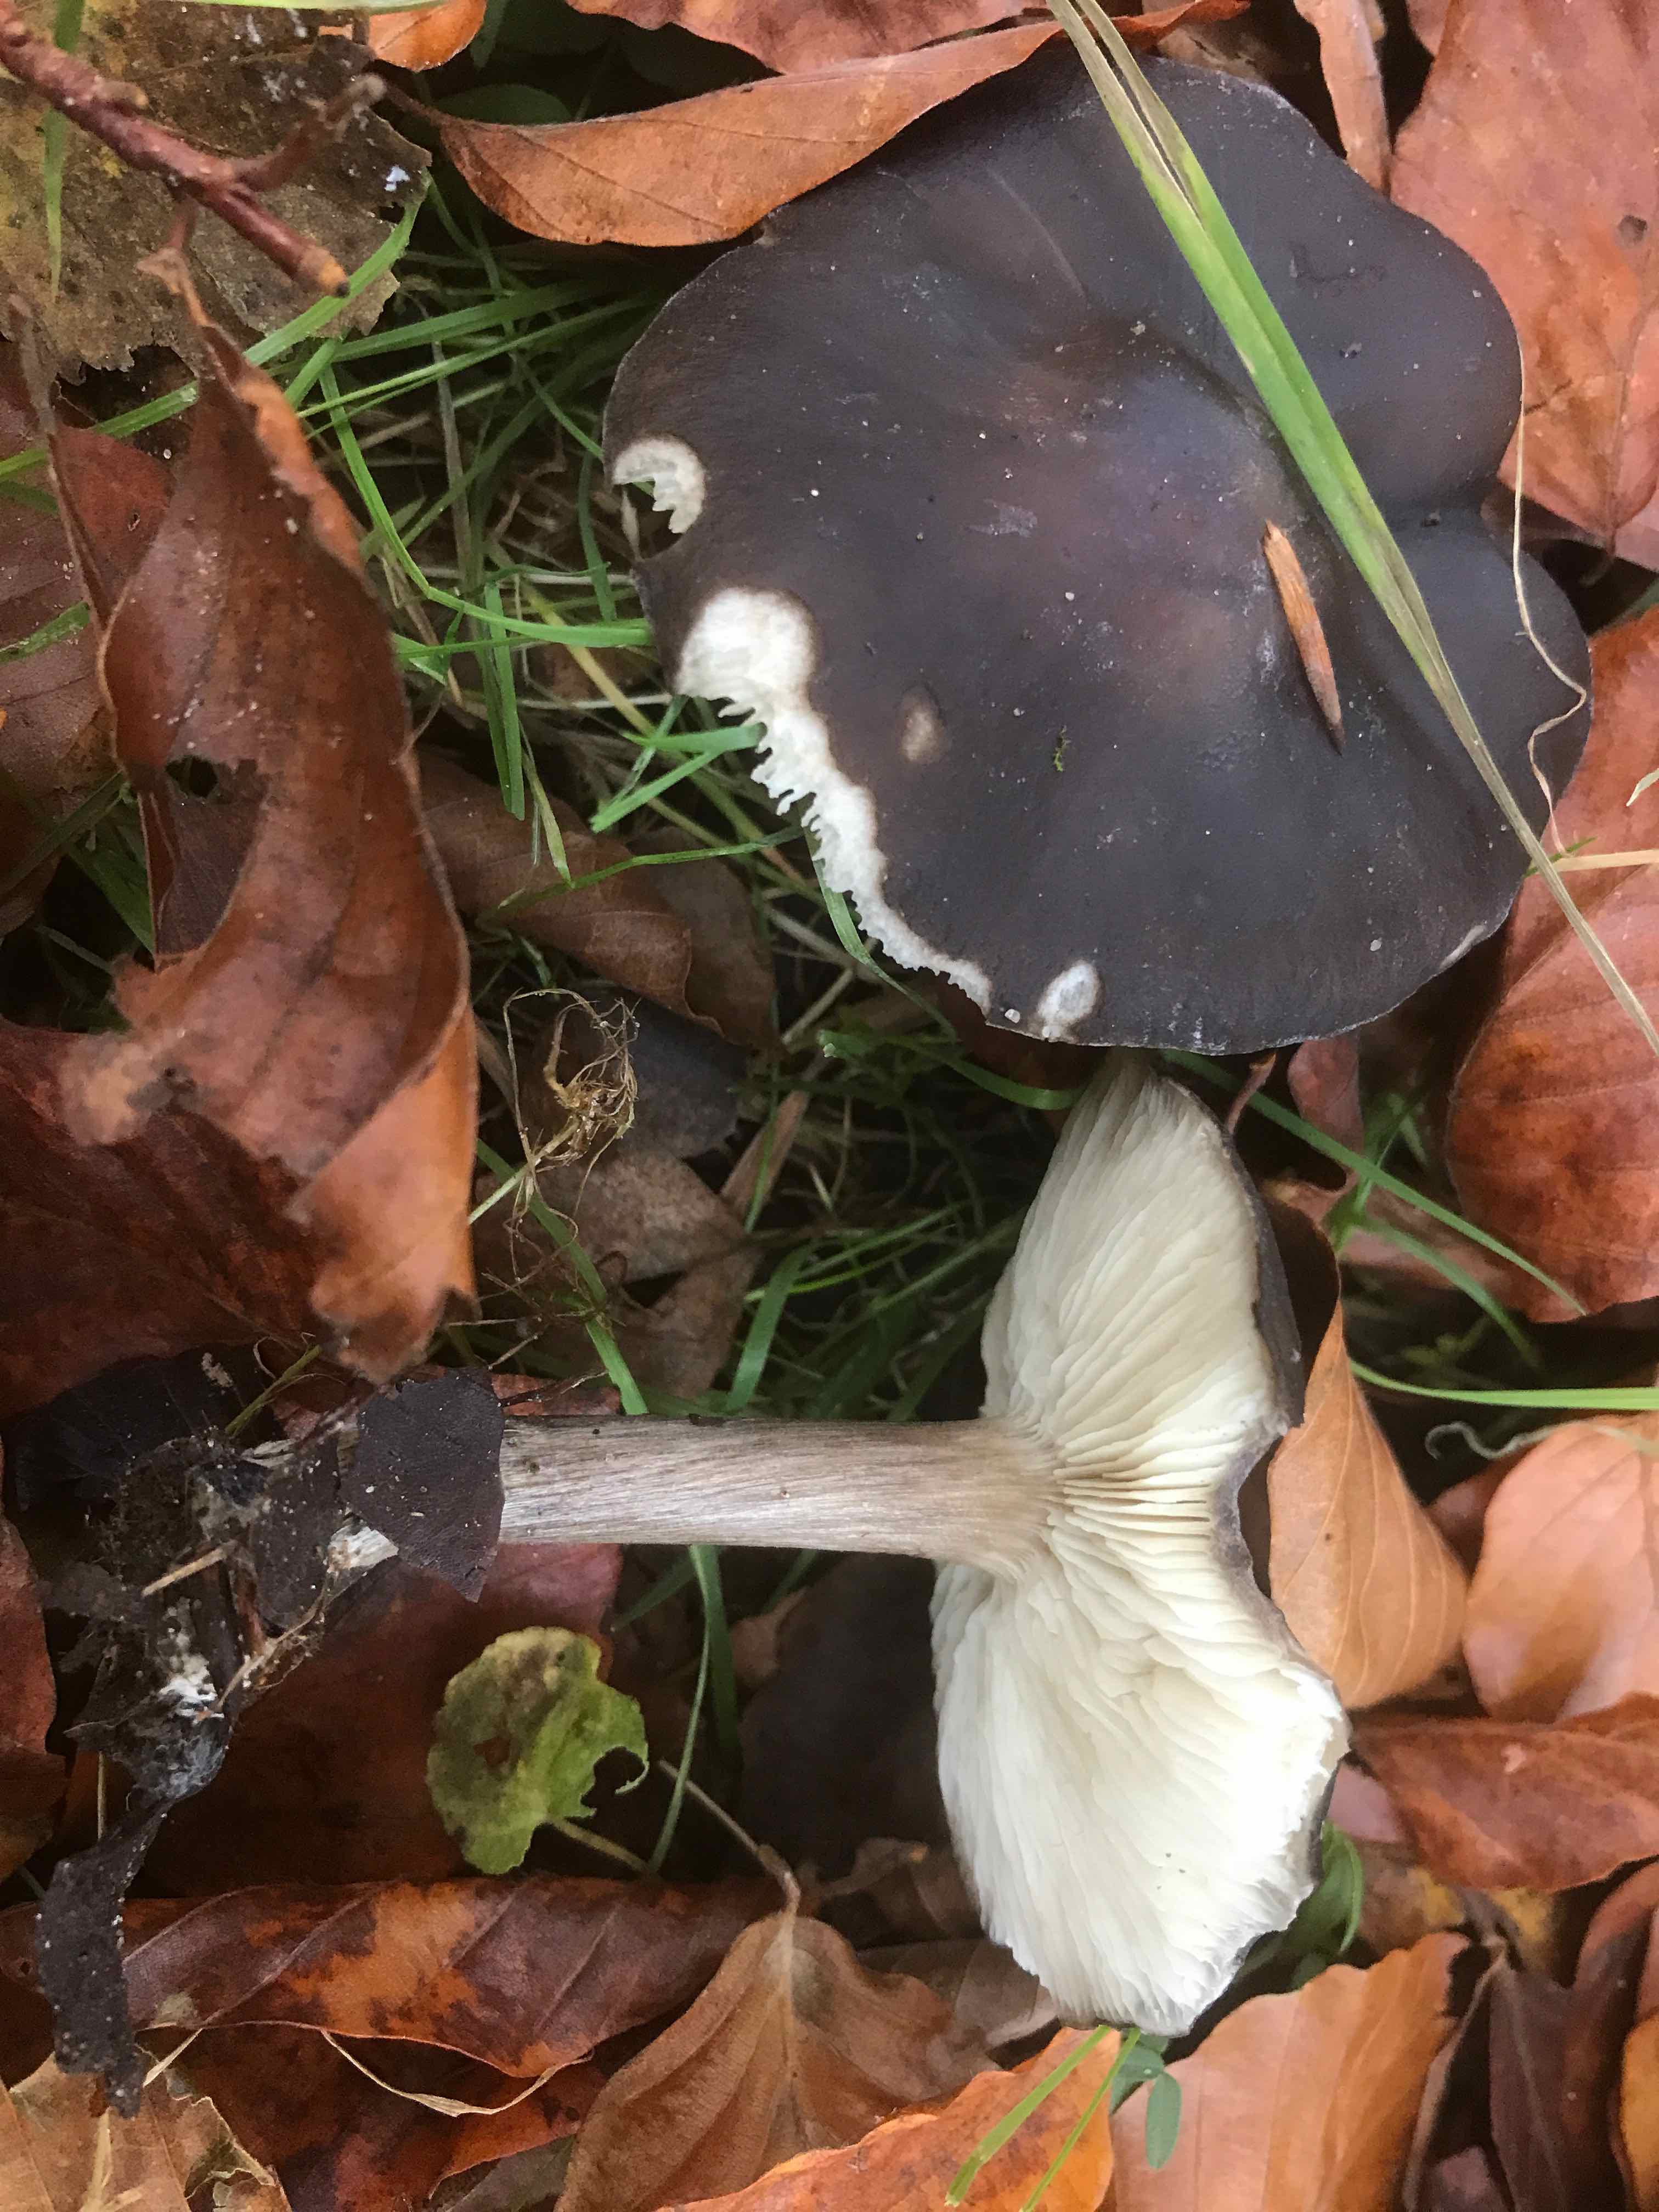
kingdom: Fungi
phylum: Basidiomycota
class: Agaricomycetes
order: Agaricales
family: Tricholomataceae
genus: Melanoleuca
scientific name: Melanoleuca
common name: munkehat
